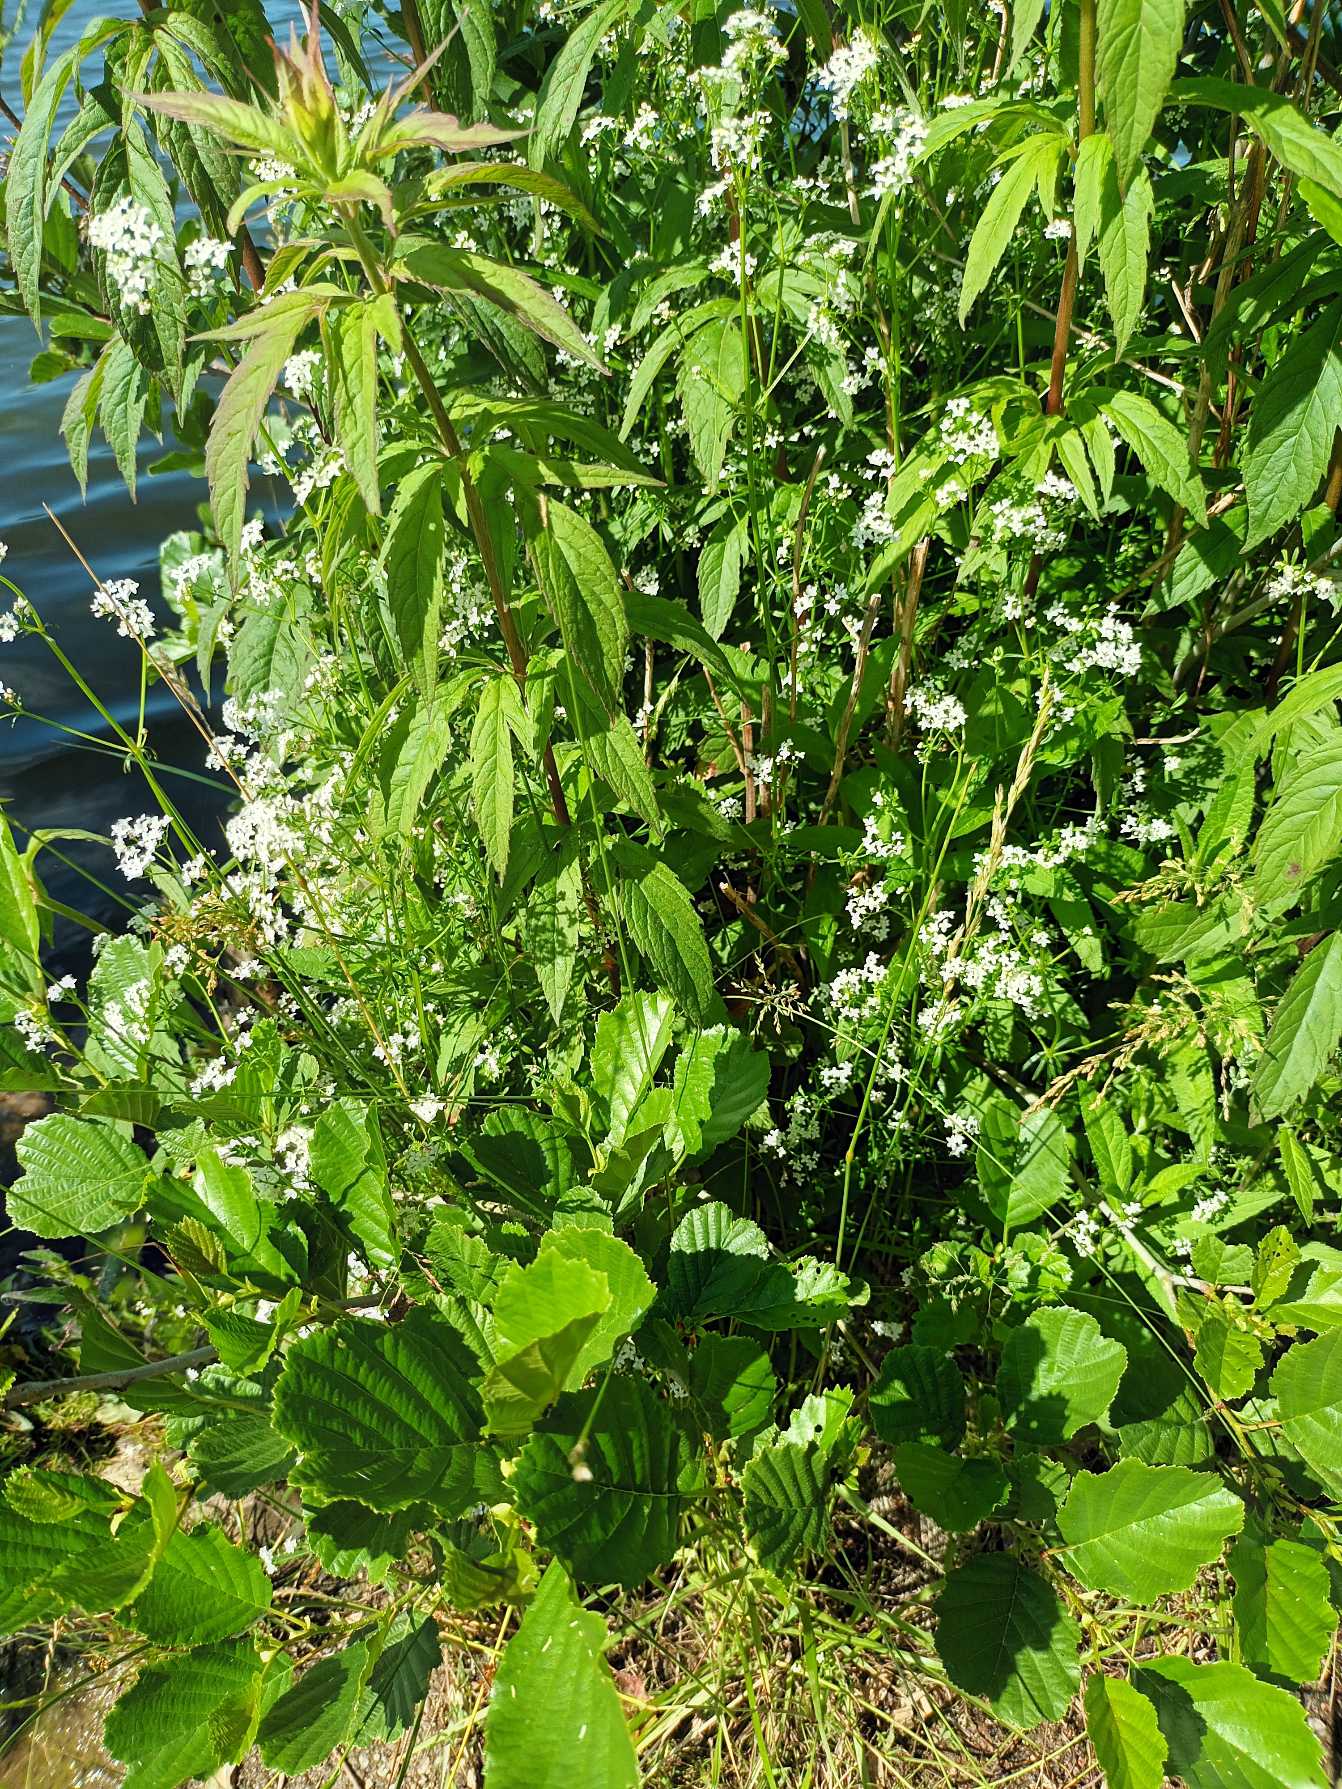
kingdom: Plantae
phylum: Tracheophyta
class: Magnoliopsida
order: Gentianales
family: Rubiaceae
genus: Galium
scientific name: Galium palustre
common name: Kær-snerre
